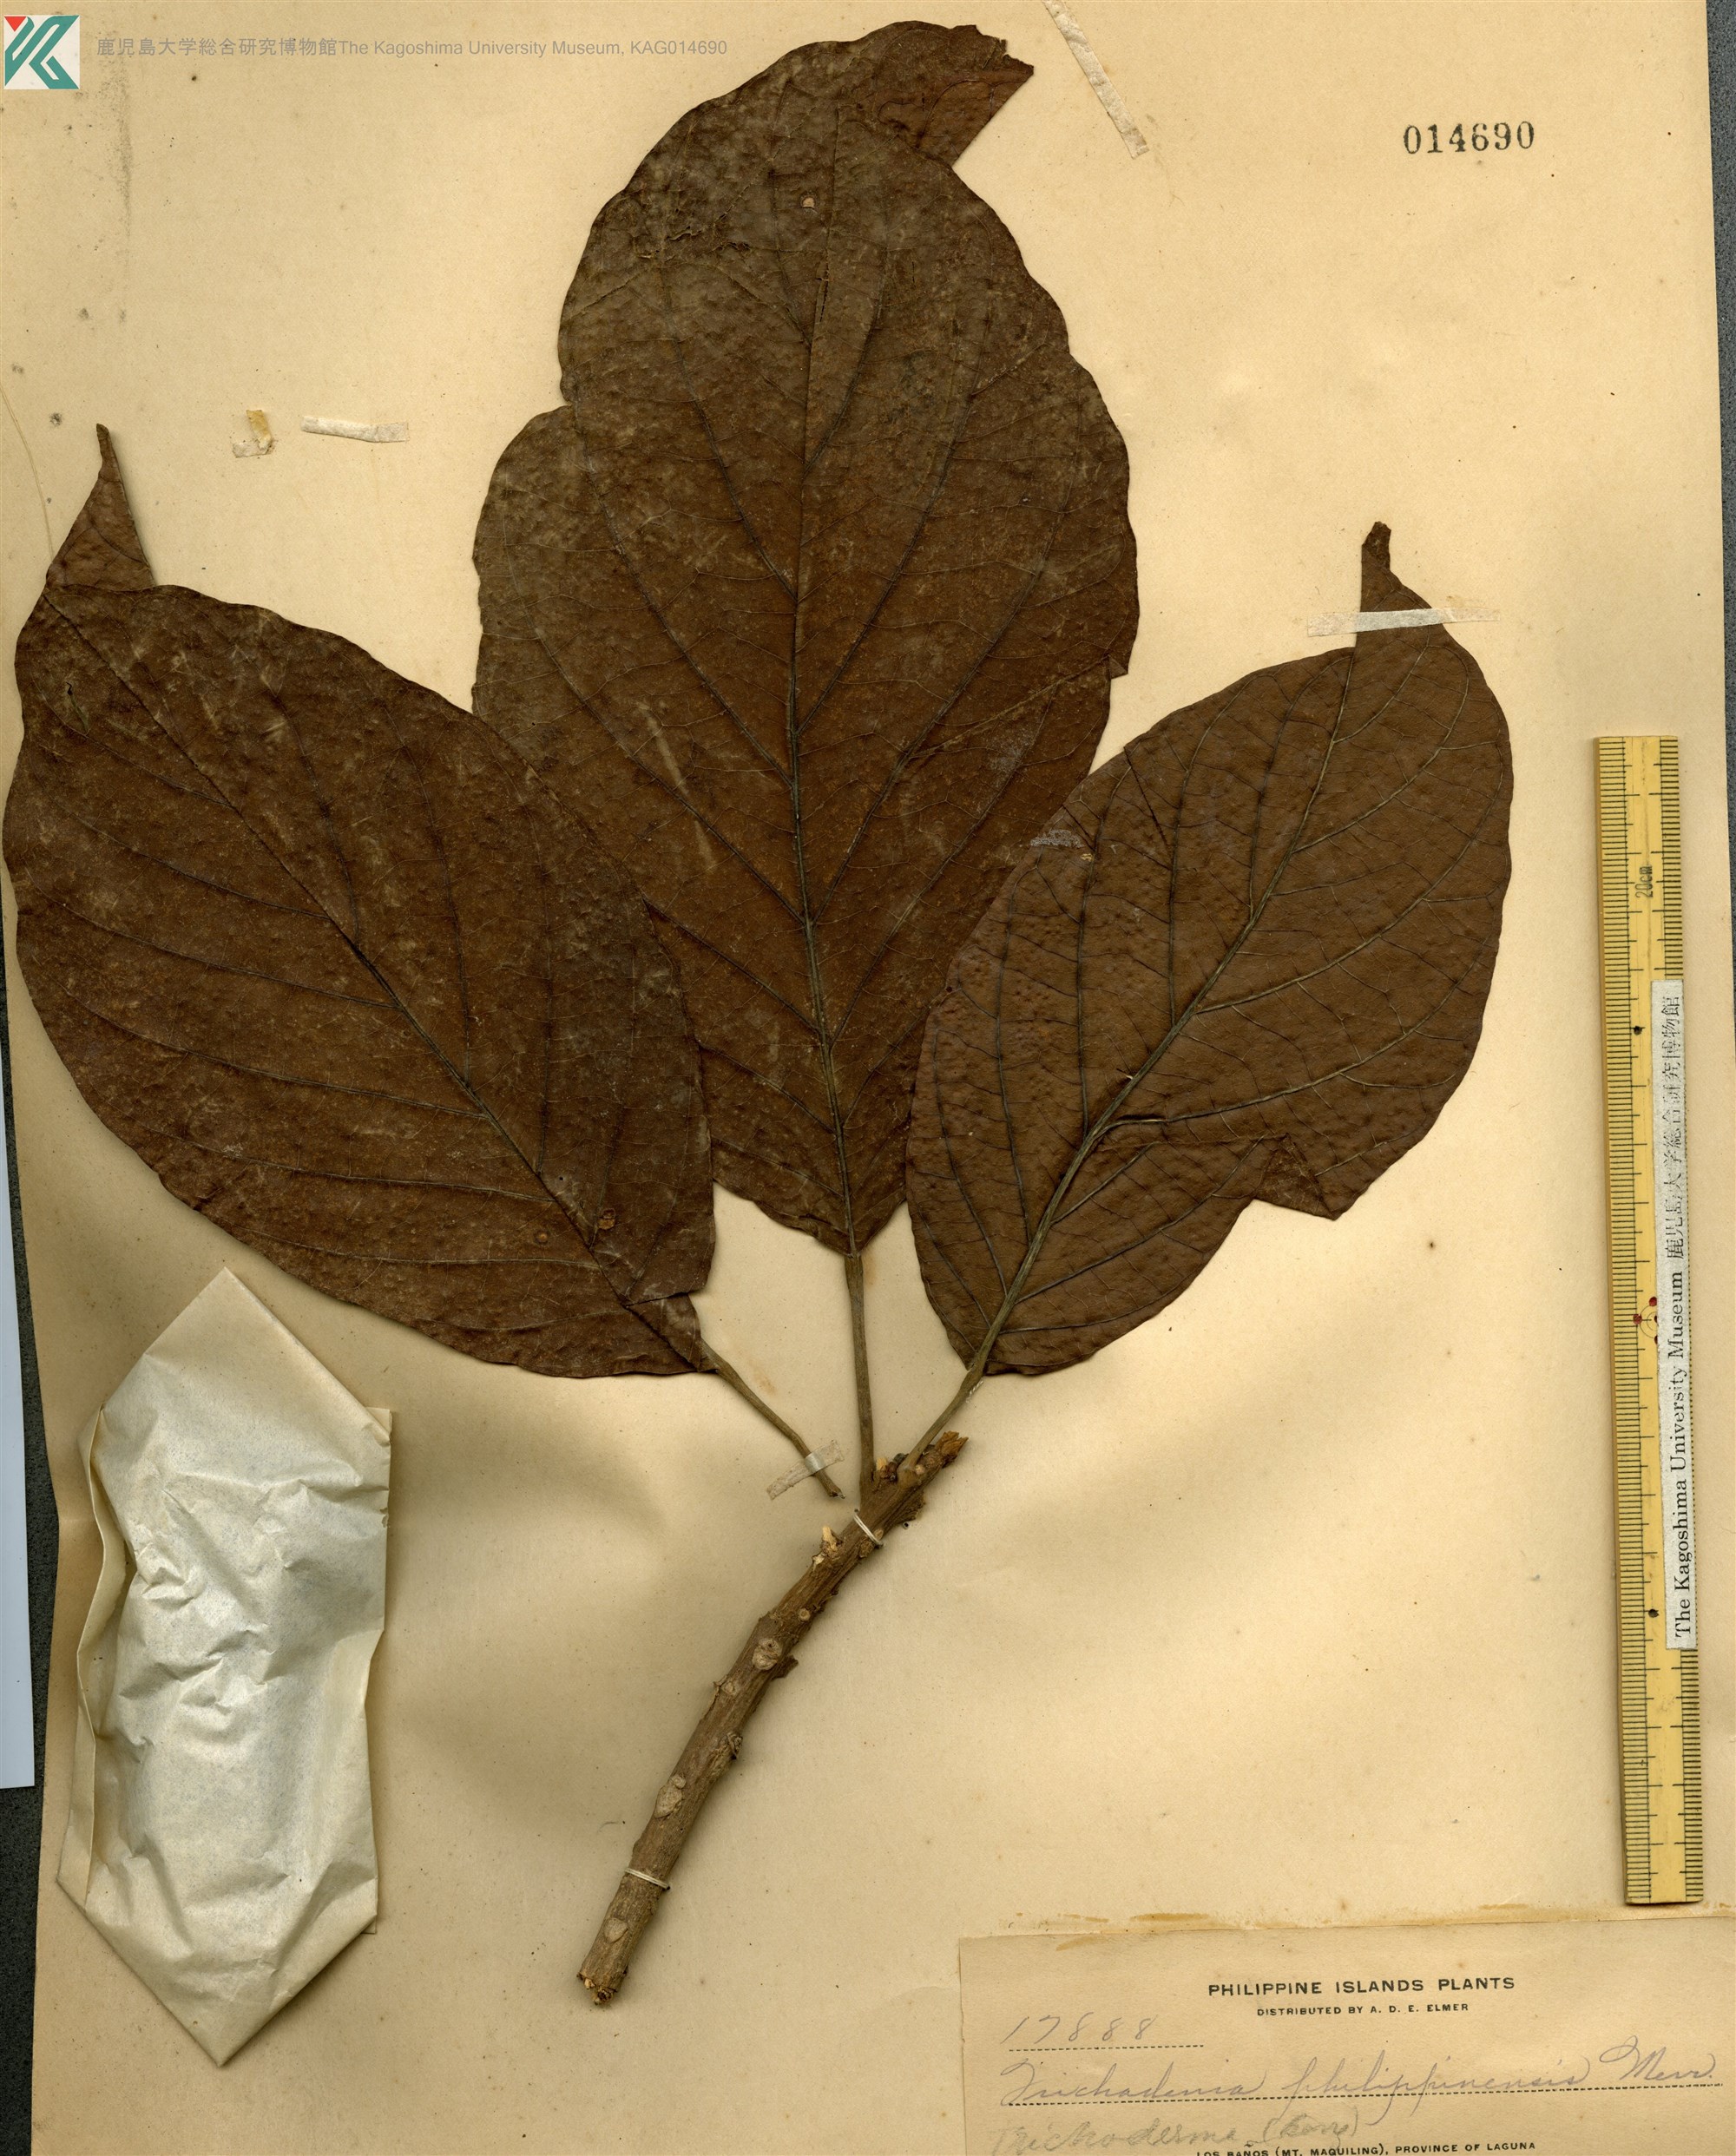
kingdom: Plantae
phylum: Tracheophyta
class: Magnoliopsida
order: Malpighiales
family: Achariaceae
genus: Trichadenia
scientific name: Trichadenia philippinensis
